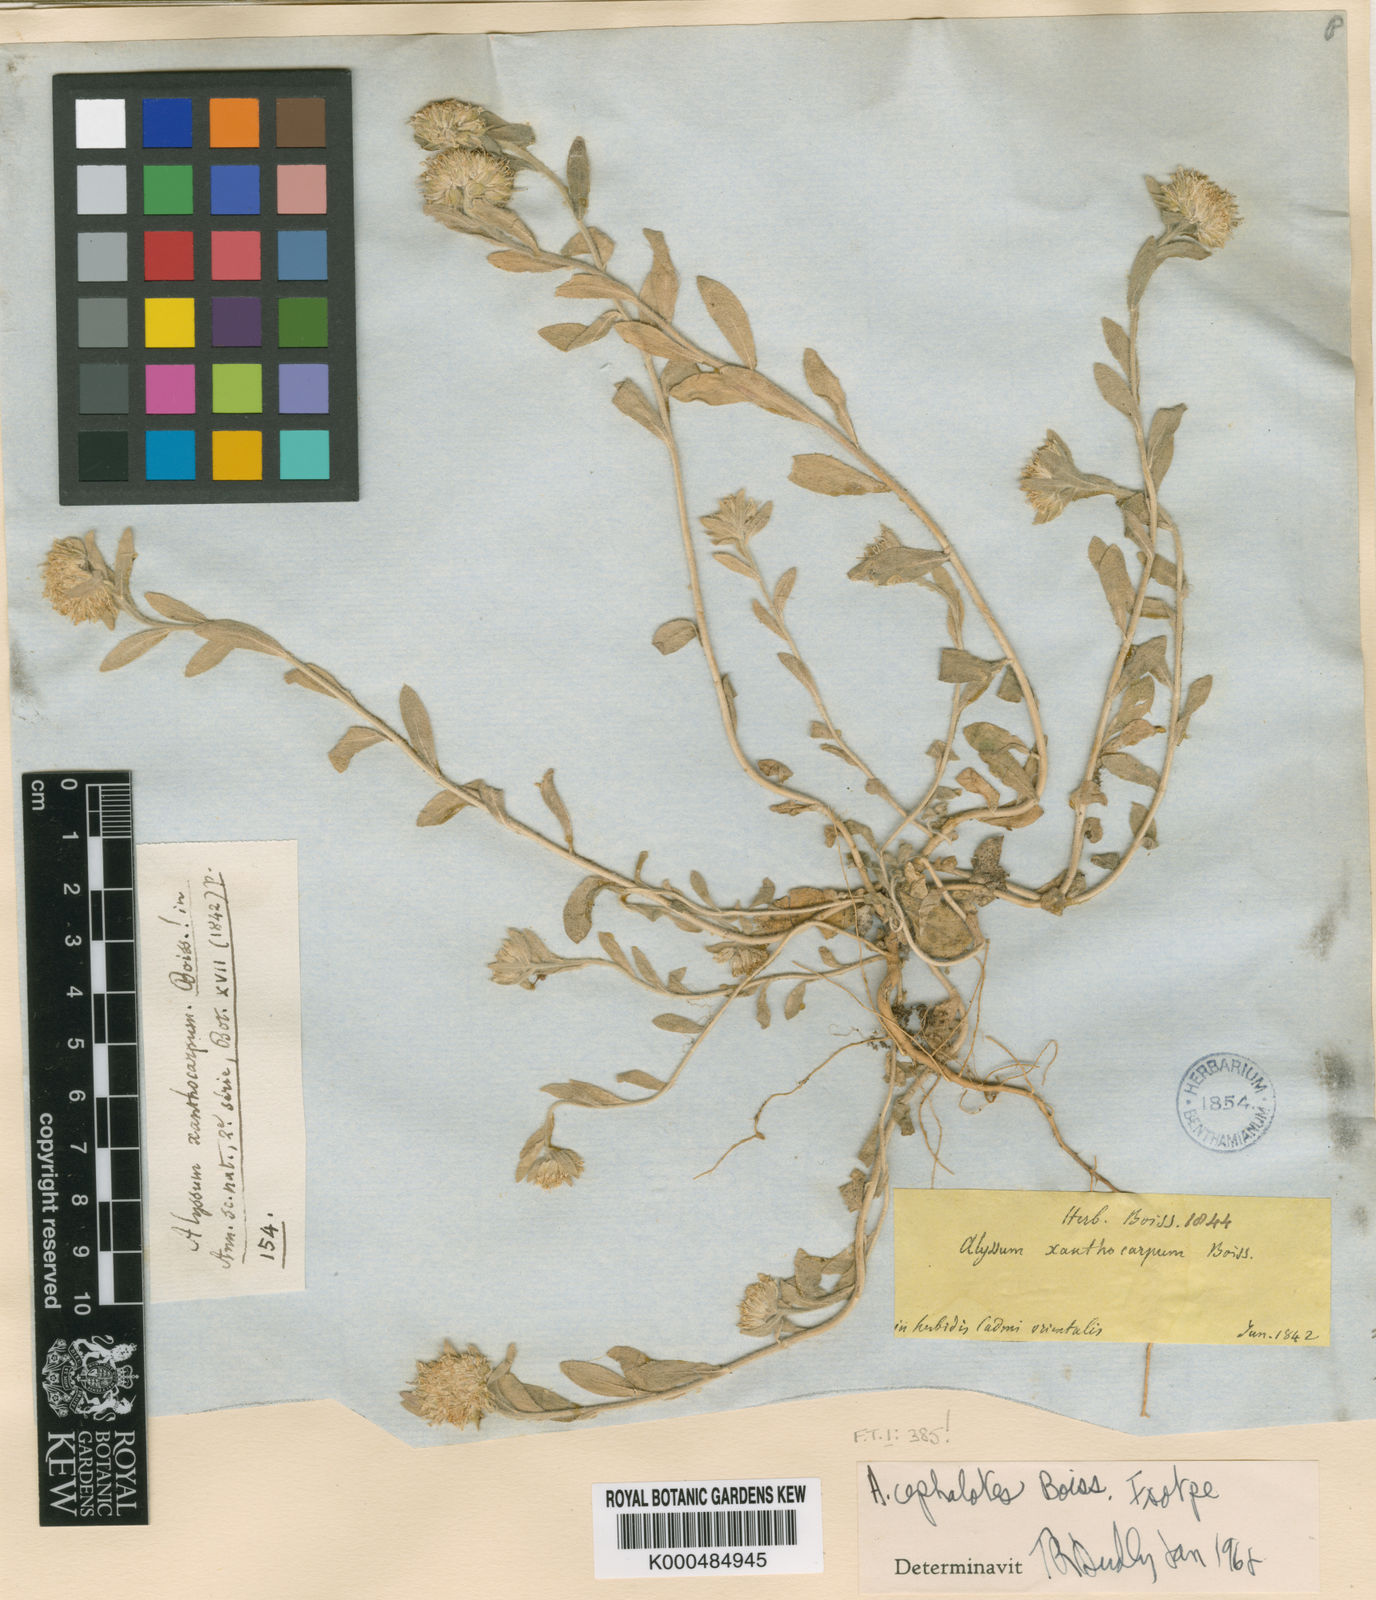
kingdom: Plantae
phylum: Tracheophyta
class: Magnoliopsida
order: Brassicales
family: Brassicaceae
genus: Alyssum
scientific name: Alyssum cephalotes
